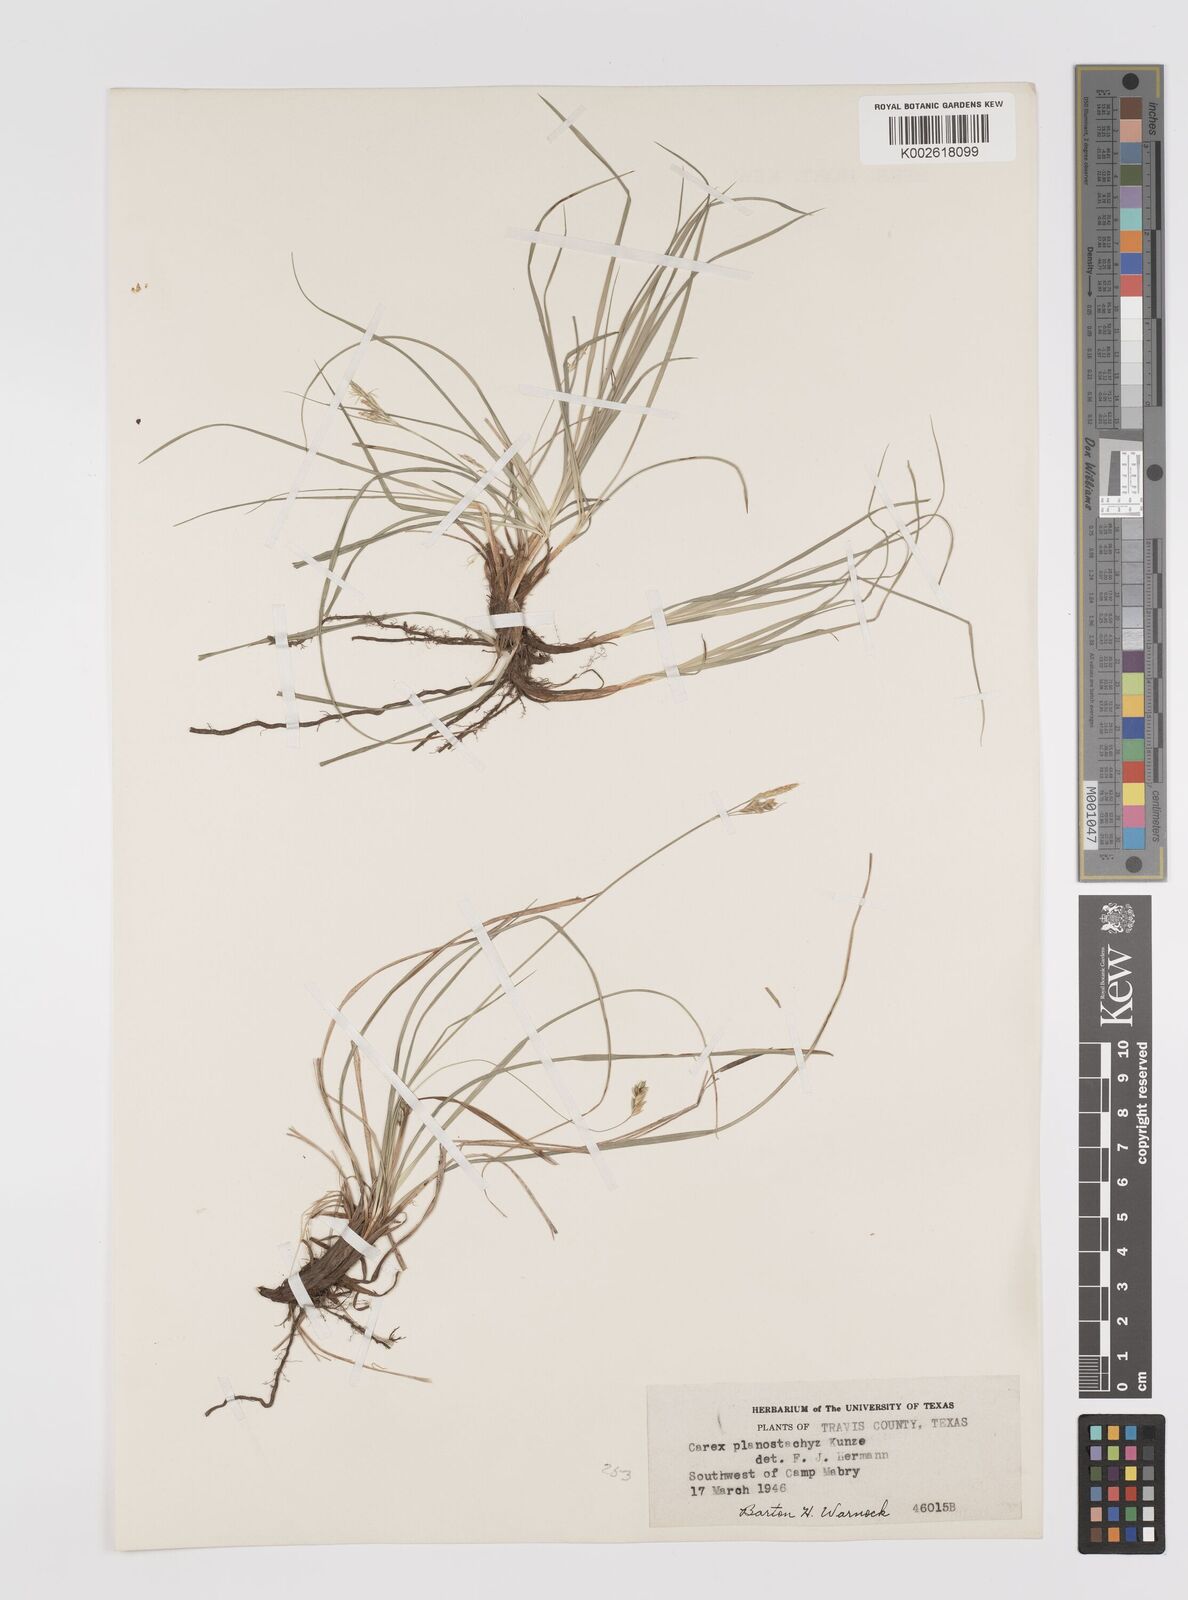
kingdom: Plantae
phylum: Tracheophyta
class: Liliopsida
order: Poales
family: Cyperaceae
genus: Carex
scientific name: Carex planostachys
